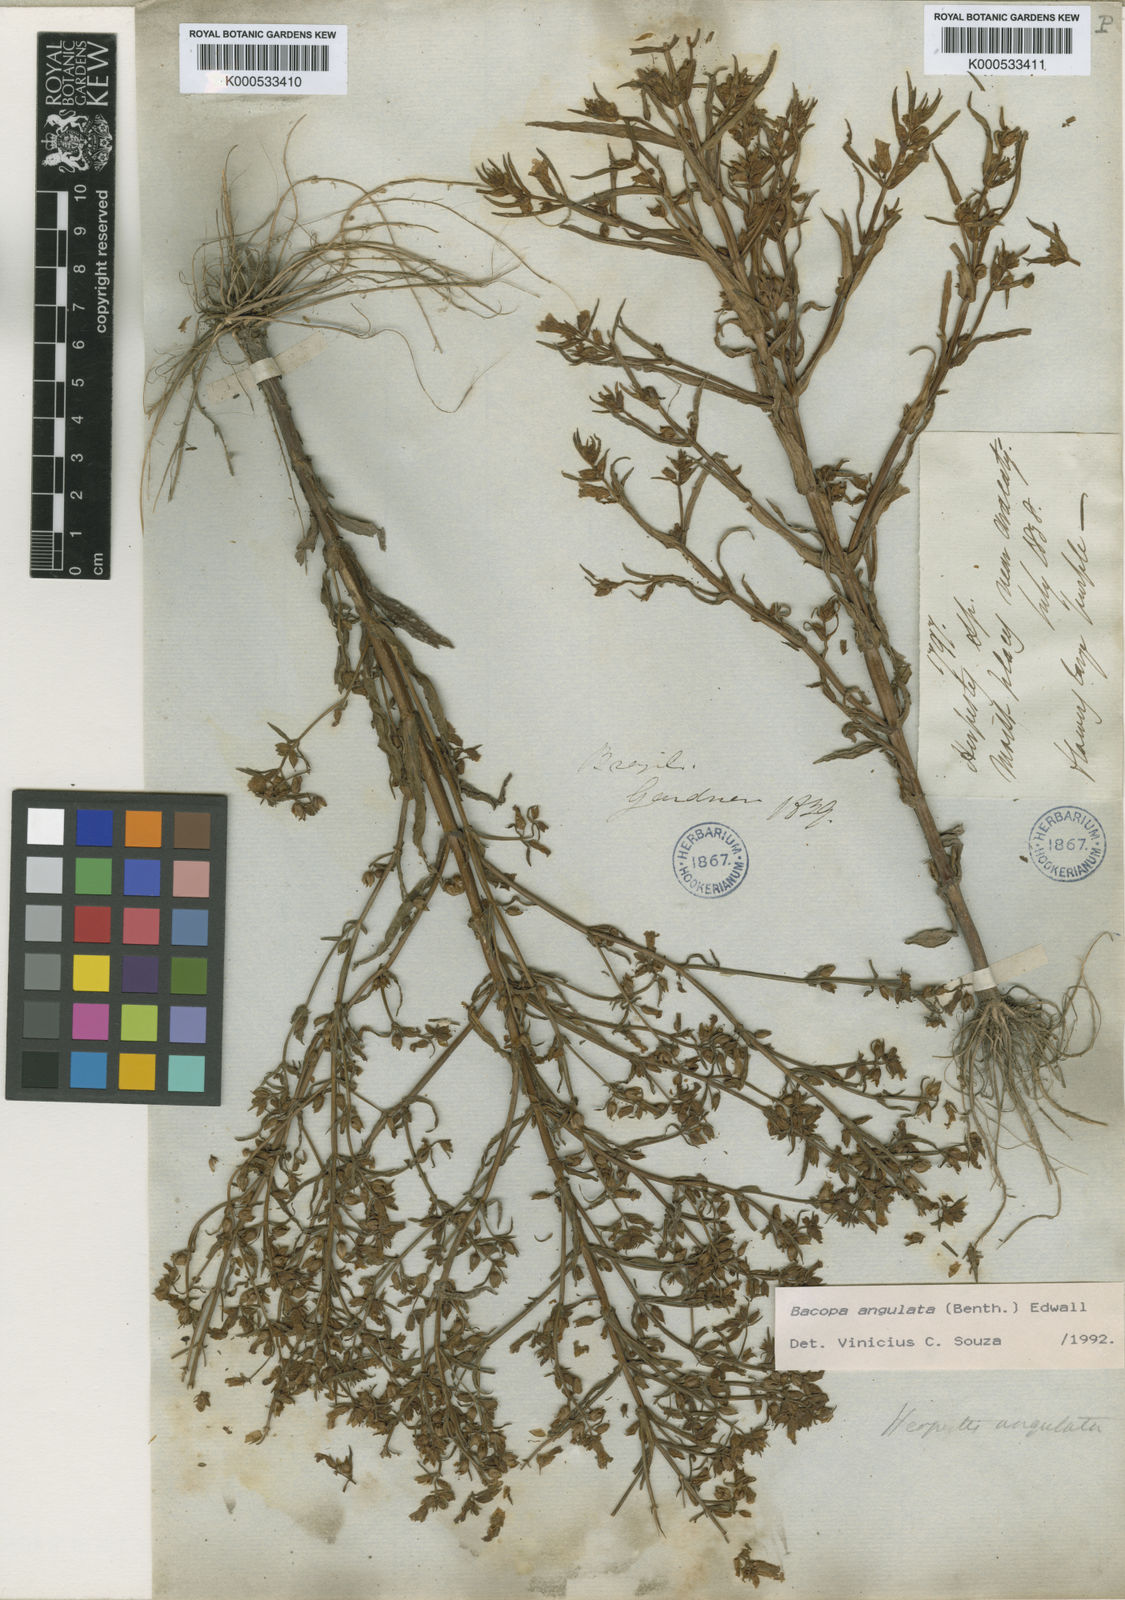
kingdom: Plantae
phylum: Tracheophyta
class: Magnoliopsida
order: Lamiales
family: Plantaginaceae
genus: Bacopa
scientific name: Bacopa angulata
